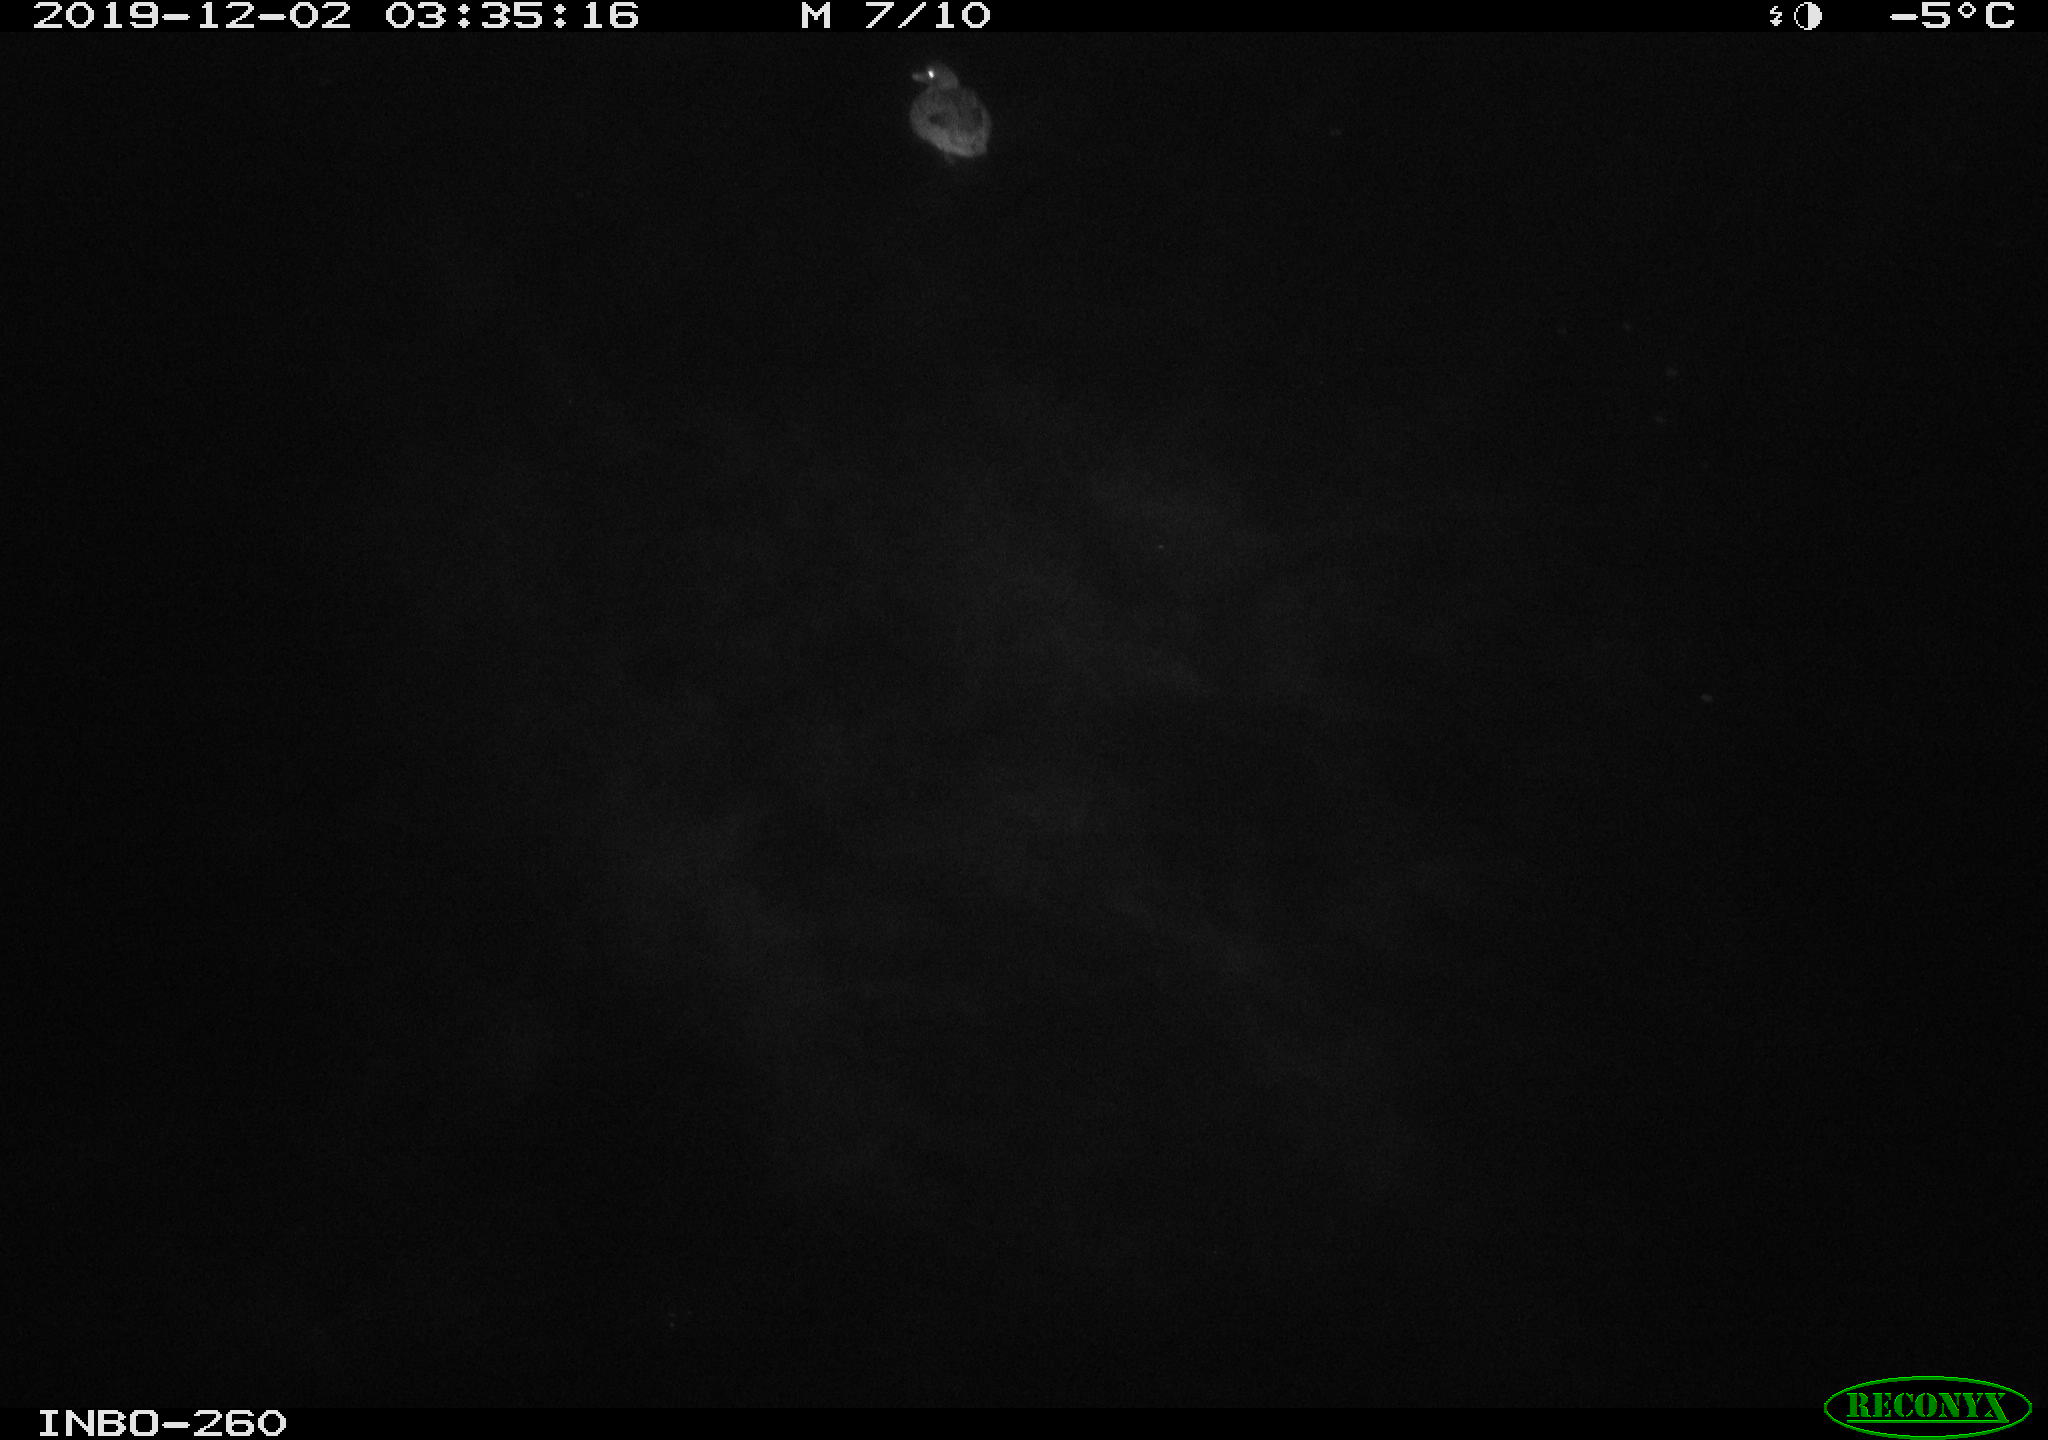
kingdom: Animalia
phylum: Chordata
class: Aves
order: Anseriformes
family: Anatidae
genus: Anas
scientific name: Anas platyrhynchos
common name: Mallard
